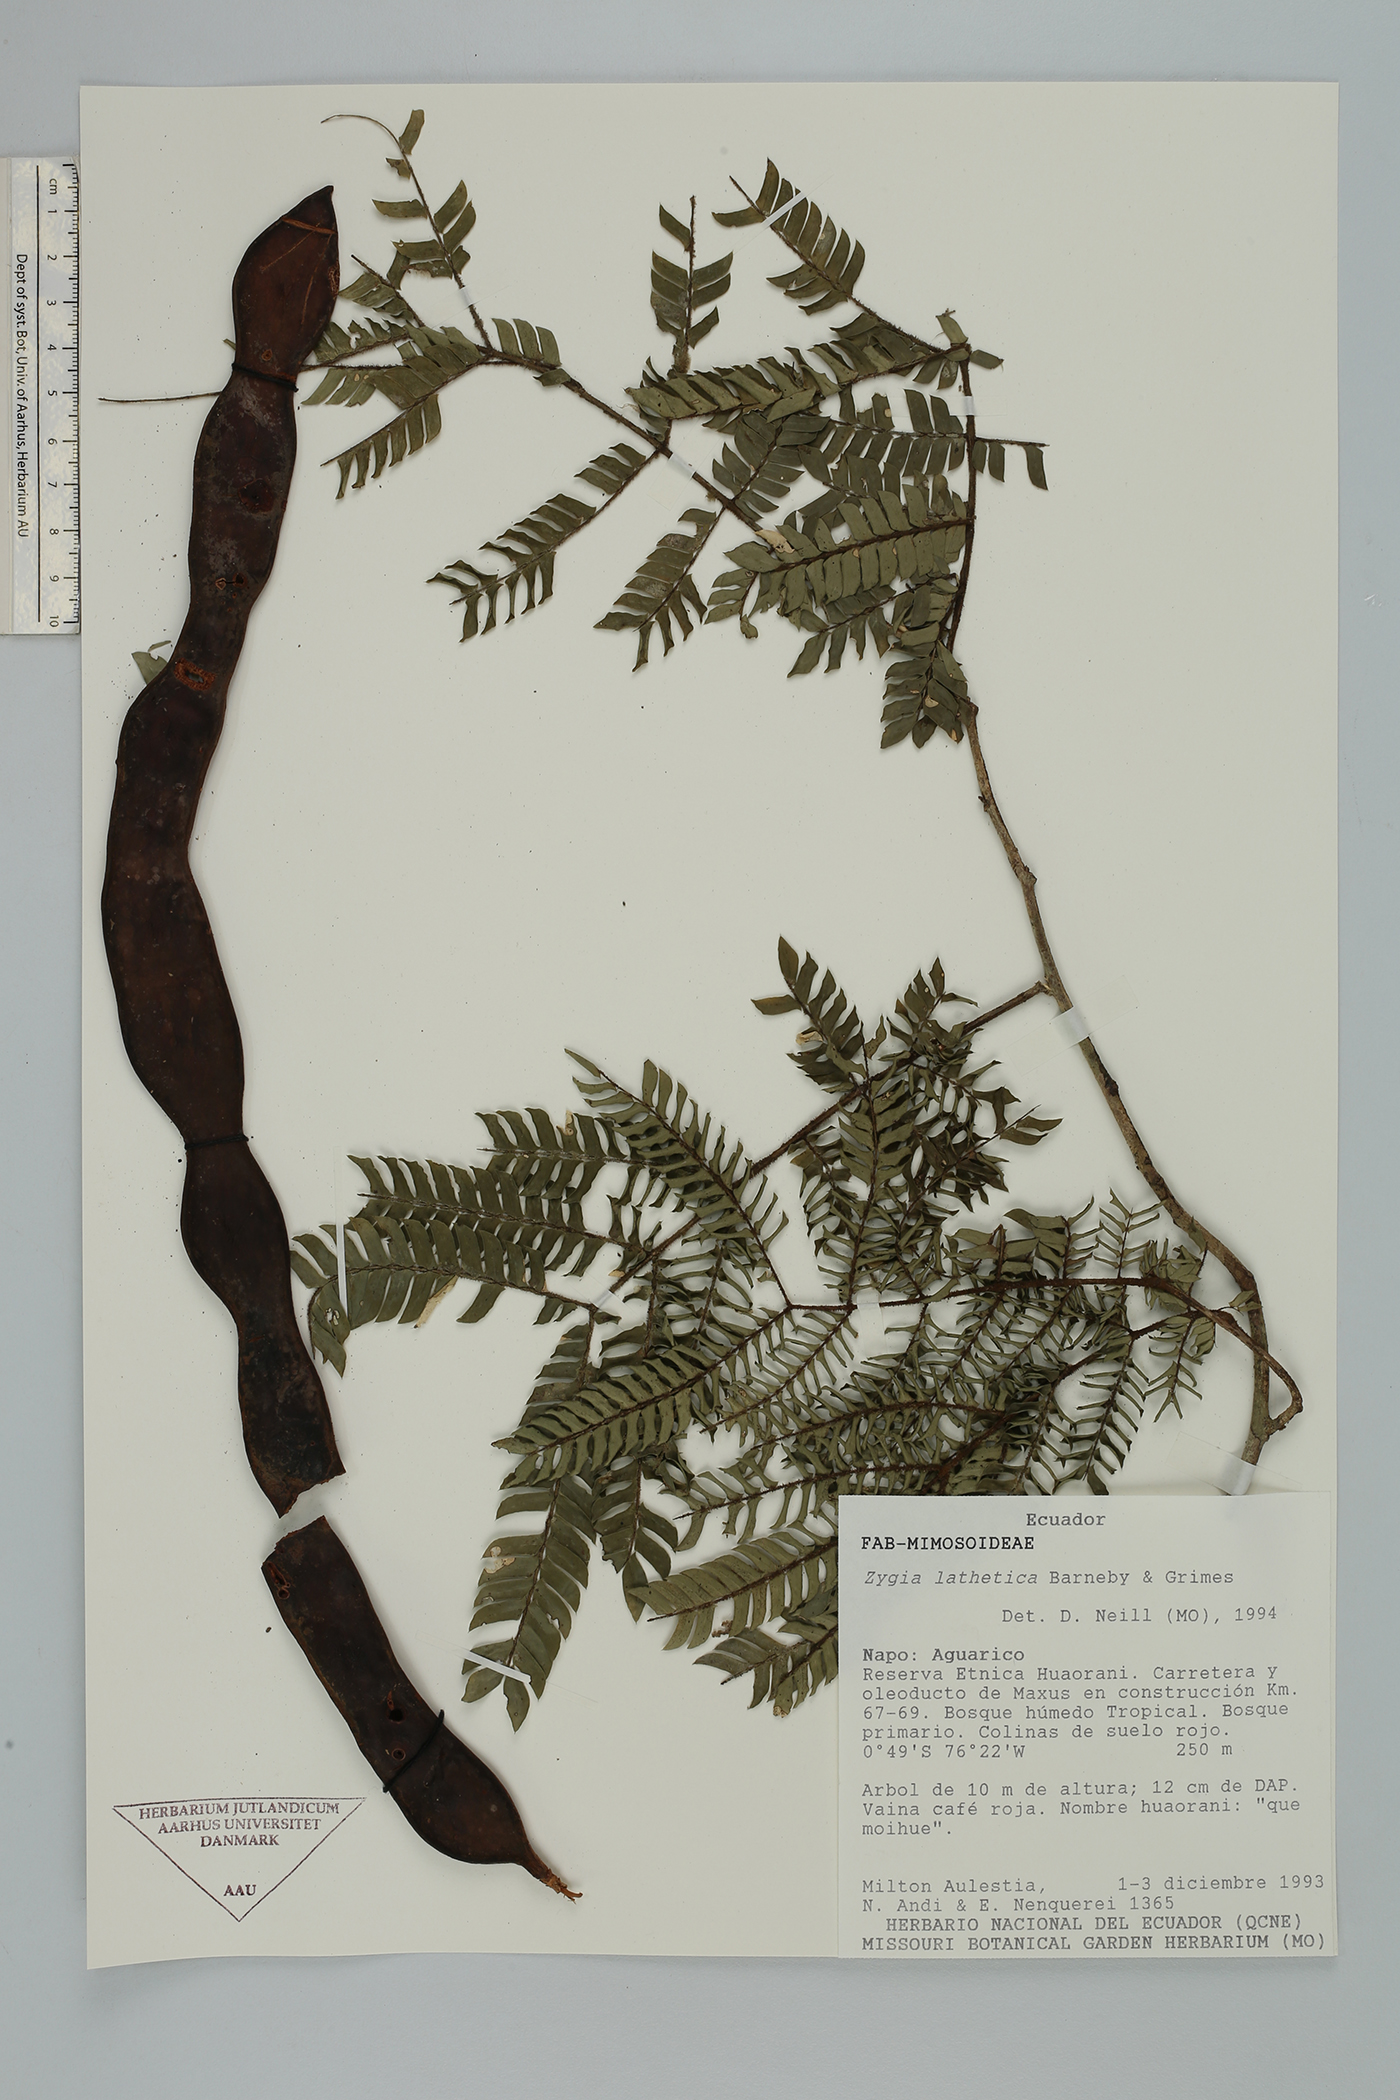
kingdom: Plantae
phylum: Tracheophyta
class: Magnoliopsida
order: Fabales
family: Fabaceae
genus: Zygia
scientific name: Zygia lathetica
